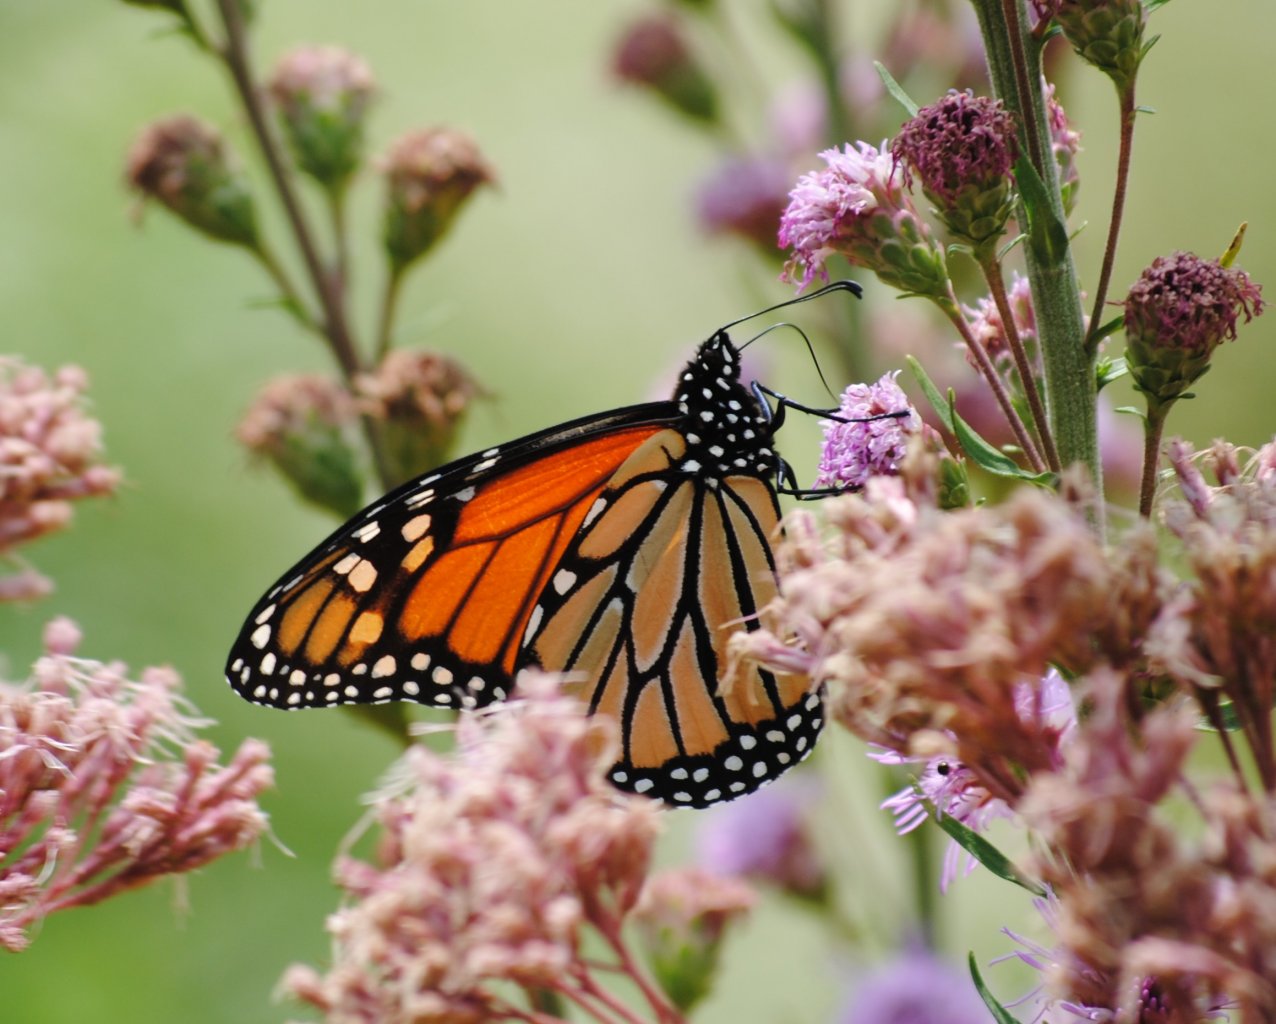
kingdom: Animalia
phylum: Arthropoda
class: Insecta
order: Lepidoptera
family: Nymphalidae
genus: Danaus
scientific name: Danaus plexippus
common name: Monarch
